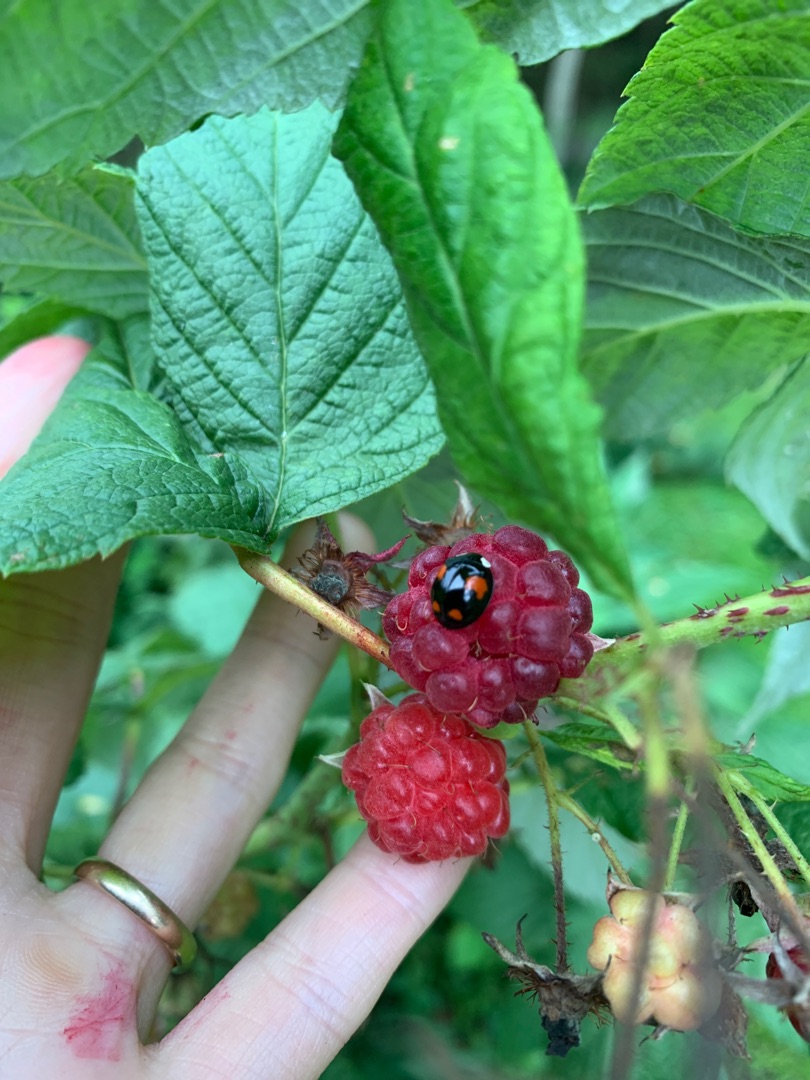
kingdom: Animalia
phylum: Arthropoda
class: Insecta
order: Coleoptera
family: Coccinellidae
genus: Harmonia
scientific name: Harmonia axyridis
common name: Harlekinmariehøne
